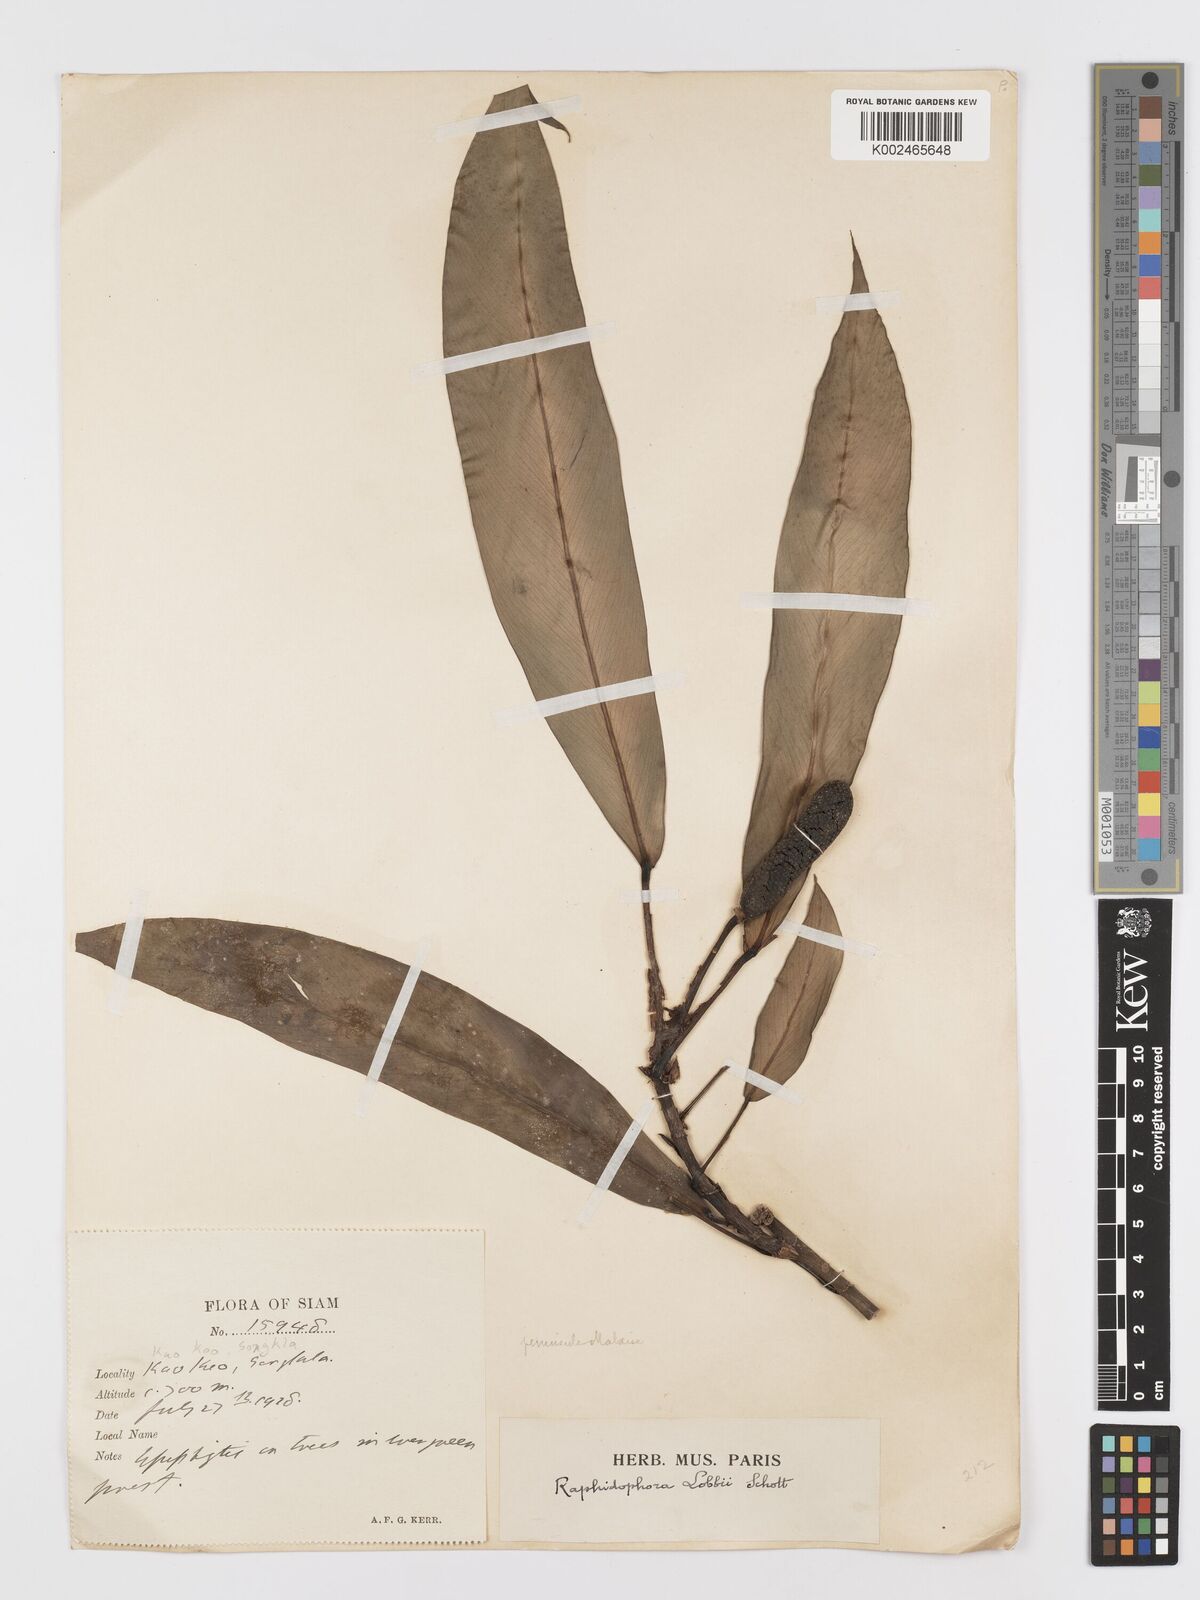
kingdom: Plantae
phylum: Tracheophyta
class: Liliopsida
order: Alismatales
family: Araceae
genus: Rhaphidophora
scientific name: Rhaphidophora sylvestris
